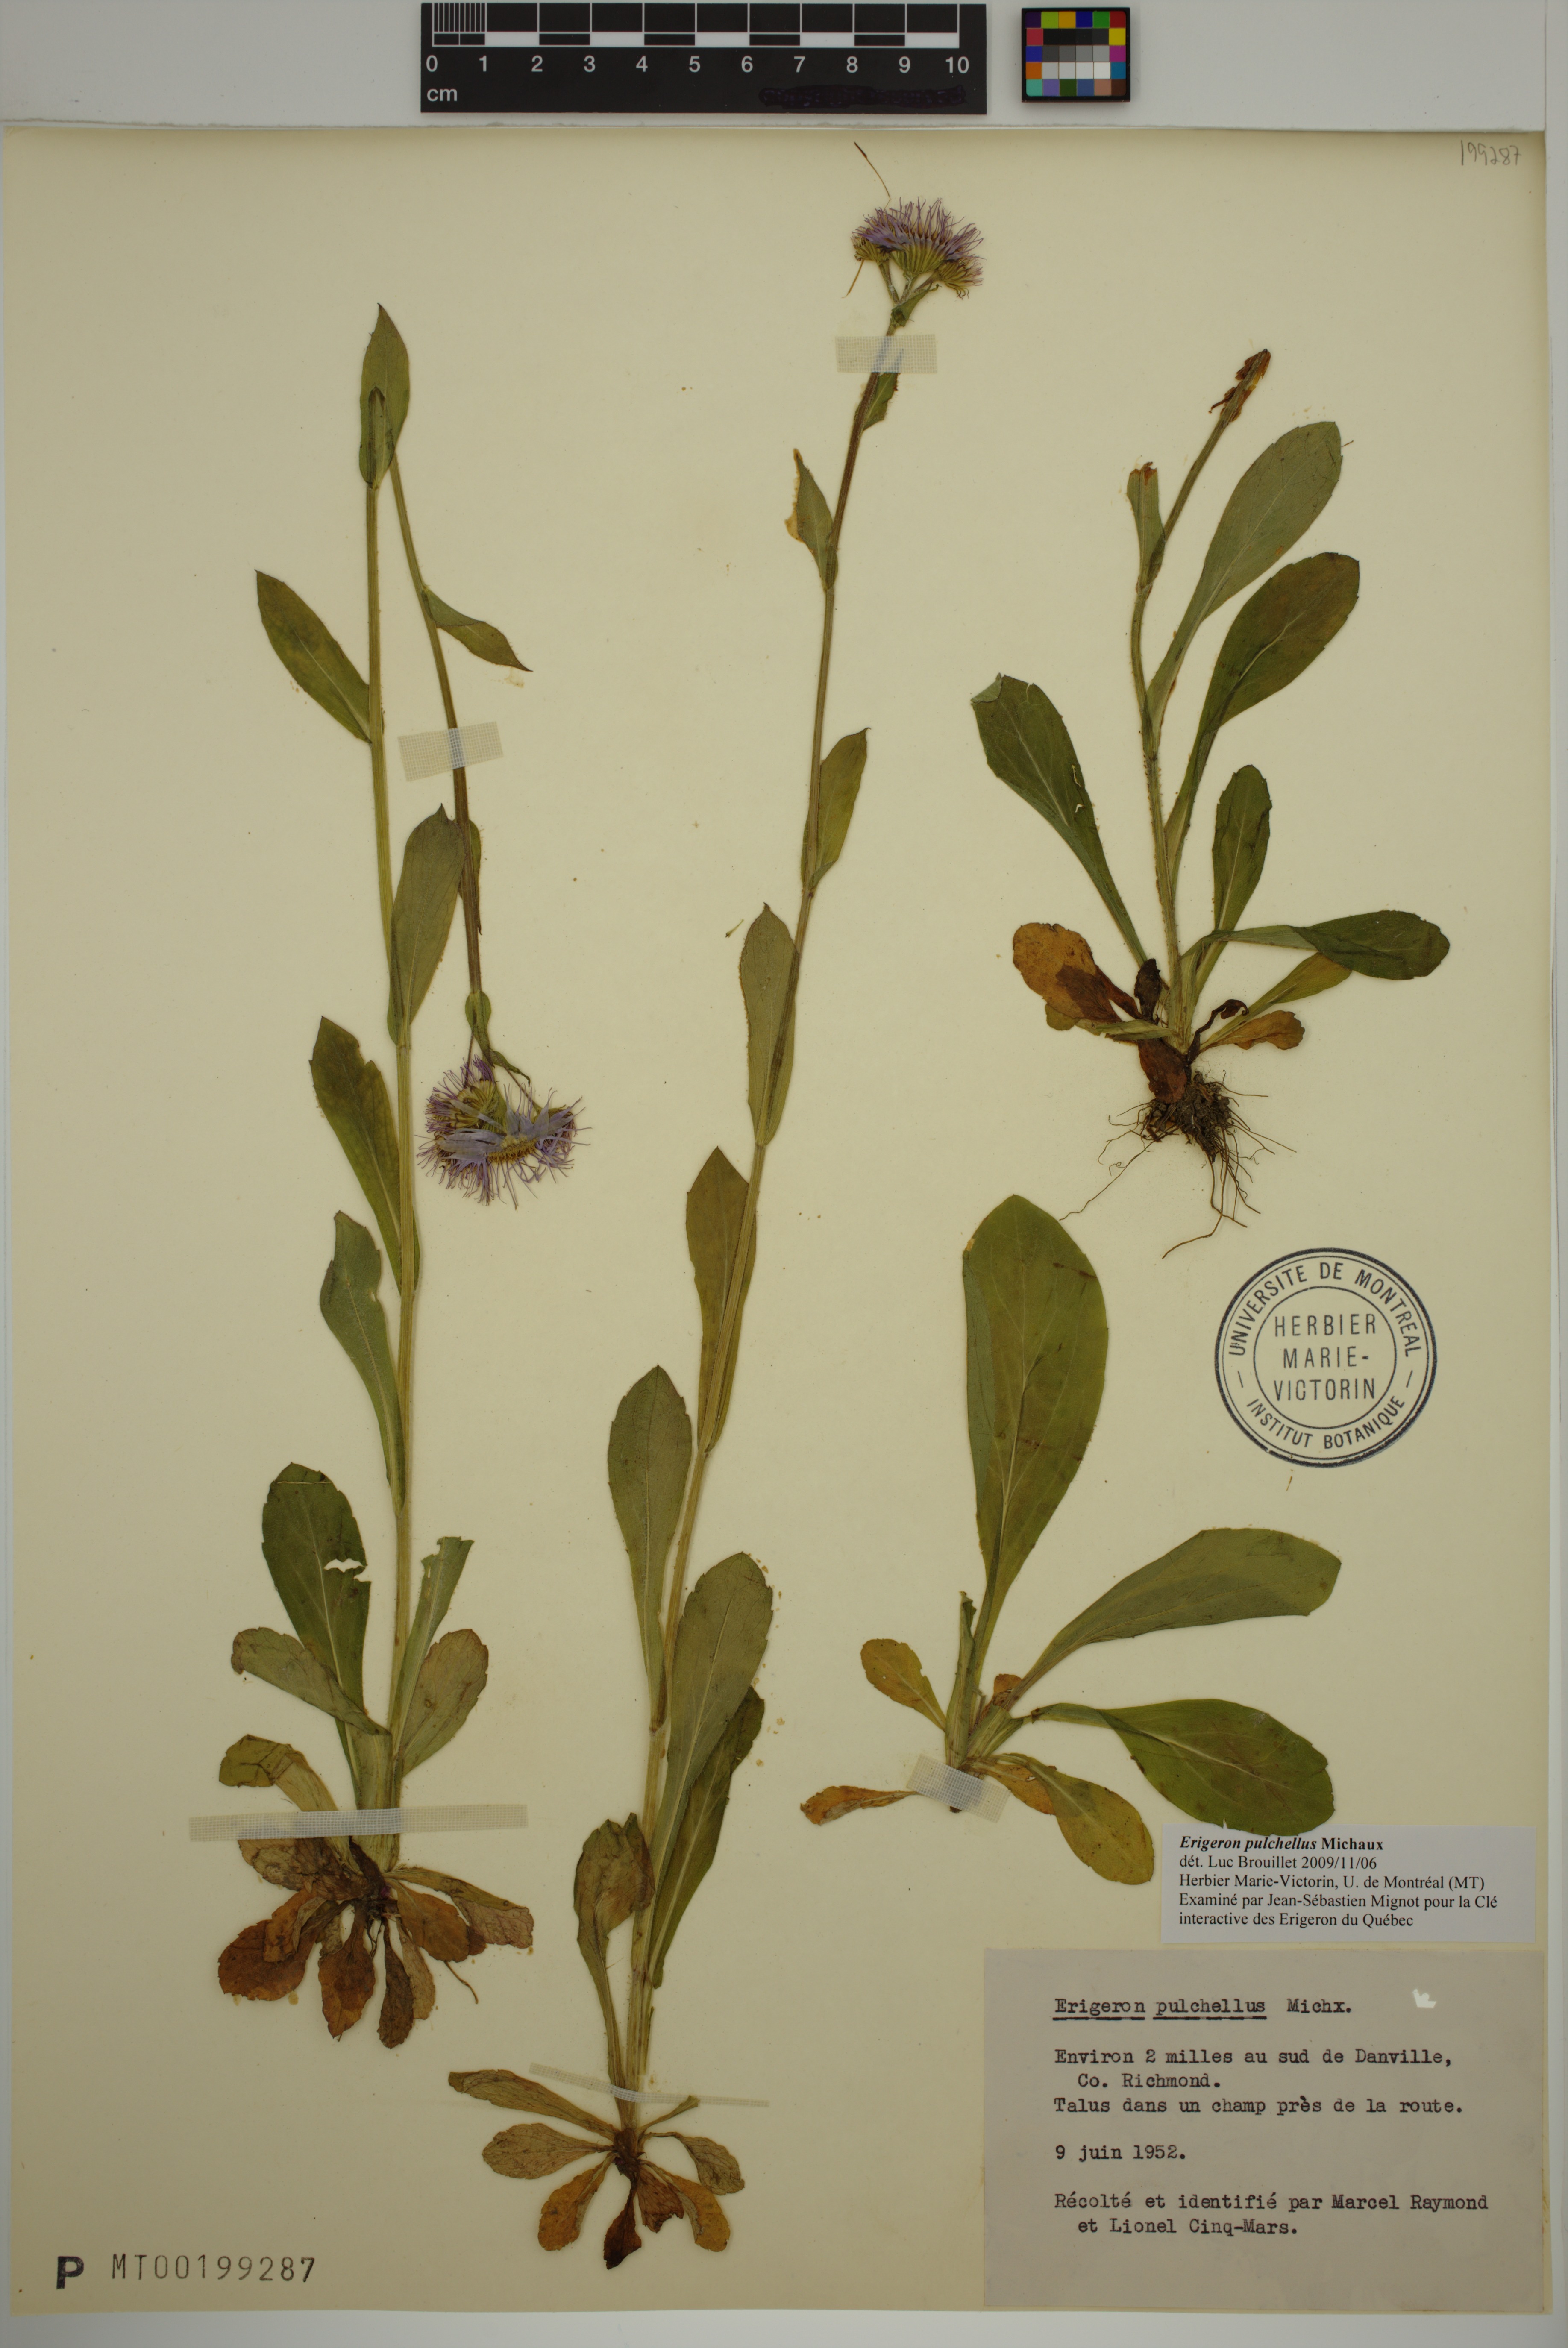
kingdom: Plantae
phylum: Tracheophyta
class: Magnoliopsida
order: Asterales
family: Asteraceae
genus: Erigeron
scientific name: Erigeron pulchellus
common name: Hairy fleabane
